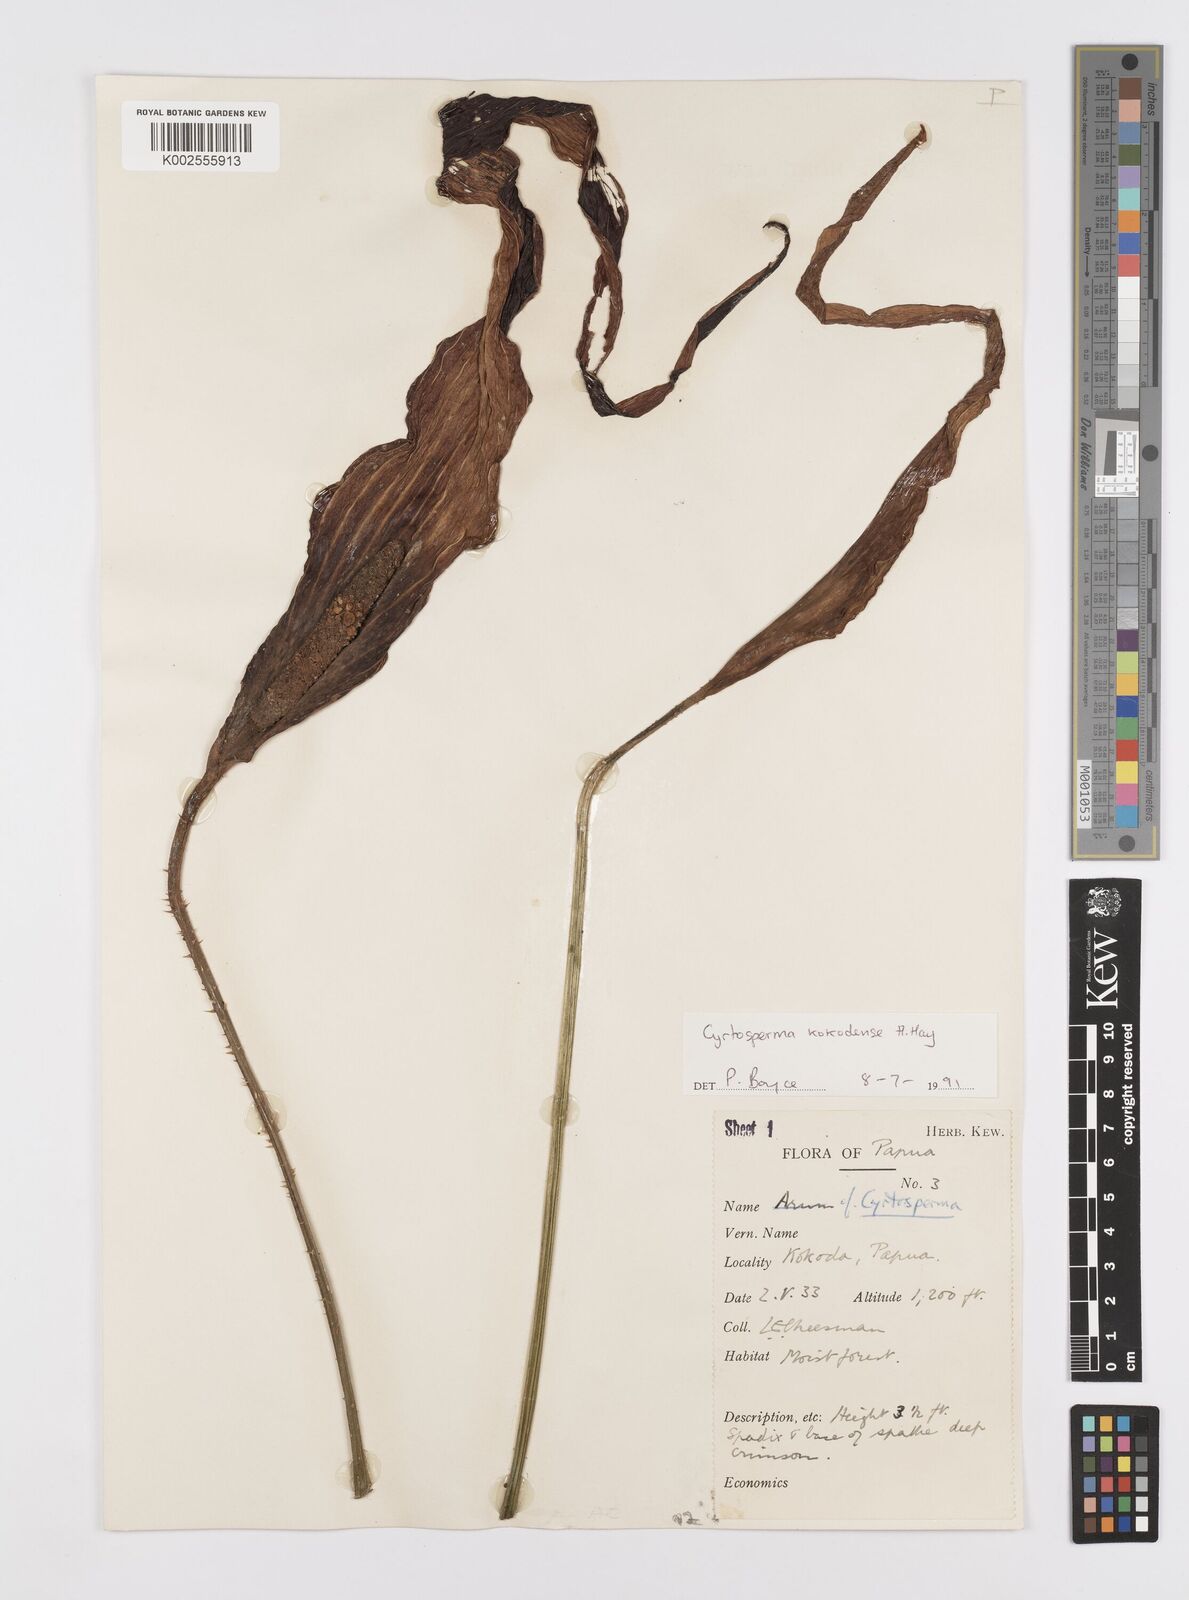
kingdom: Plantae
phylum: Tracheophyta
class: Liliopsida
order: Alismatales
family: Araceae
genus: Cyrtosperma
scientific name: Cyrtosperma kokodense
